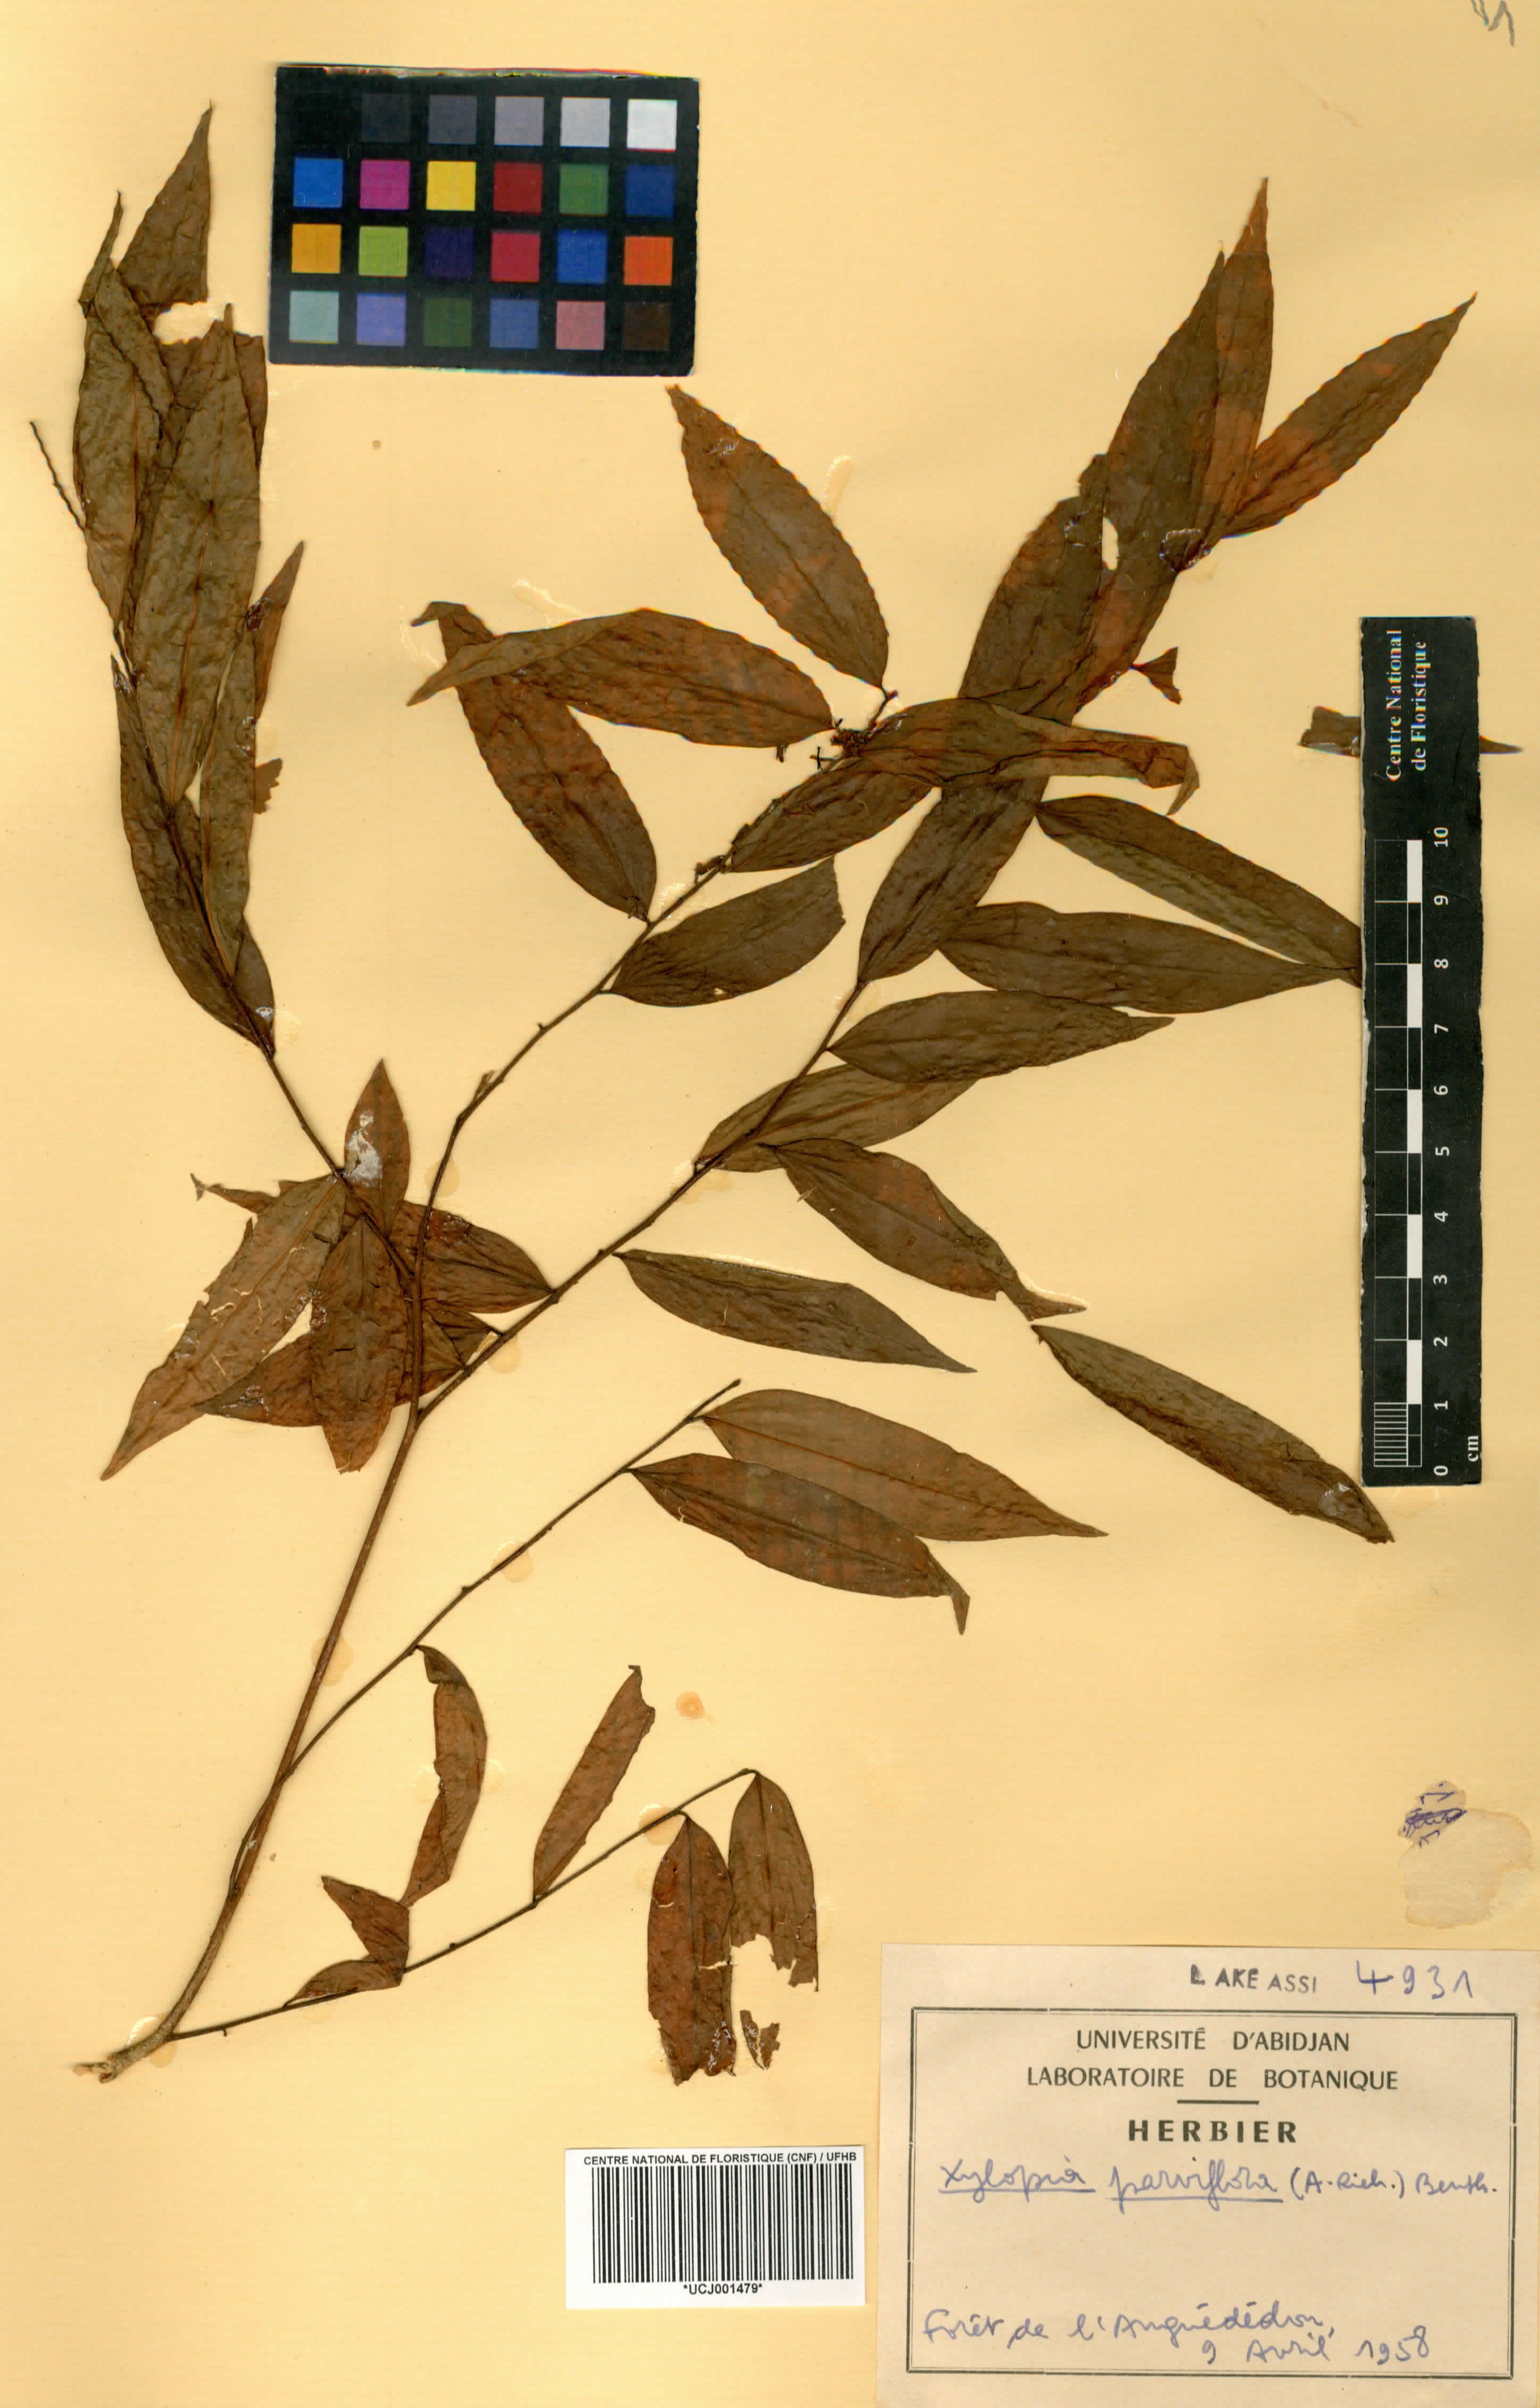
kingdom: Plantae
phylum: Tracheophyta
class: Magnoliopsida
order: Magnoliales
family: Annonaceae
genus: Xylopia
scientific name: Xylopia parviflora
